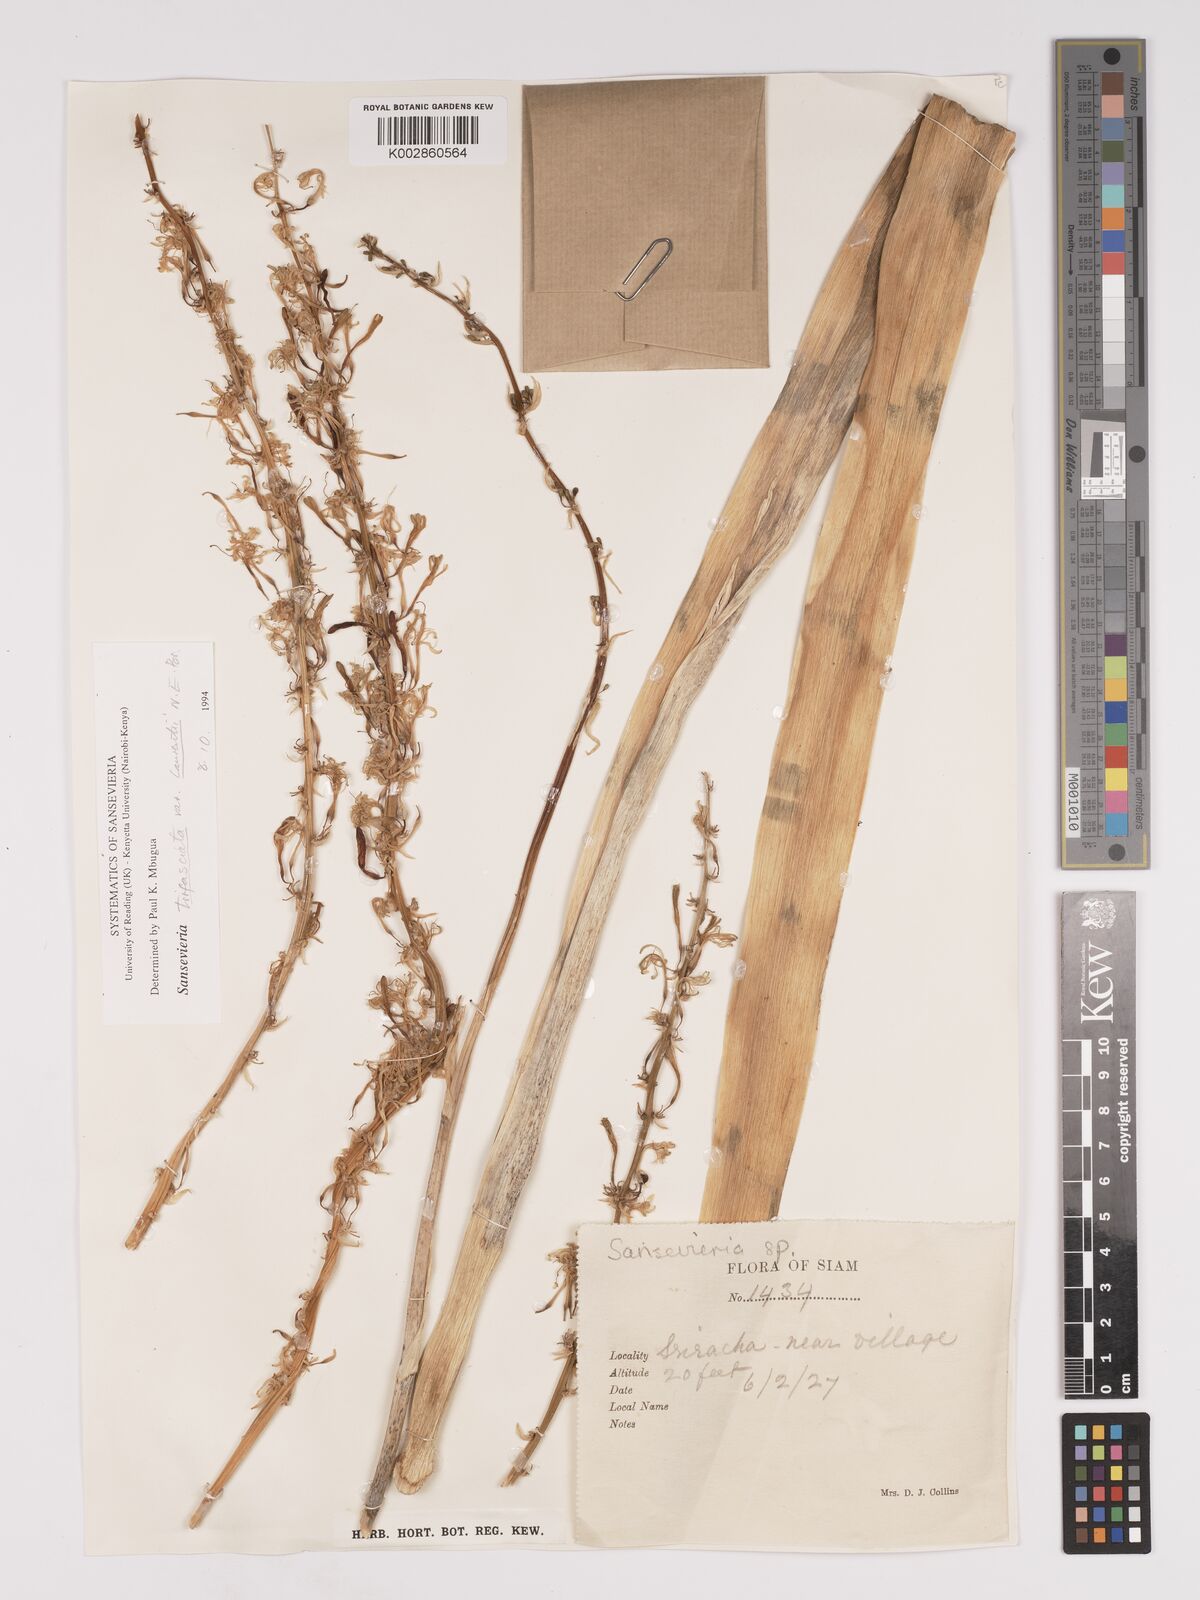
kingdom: Plantae
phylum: Tracheophyta
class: Liliopsida
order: Asparagales
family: Asparagaceae
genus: Dracaena
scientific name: Dracaena
